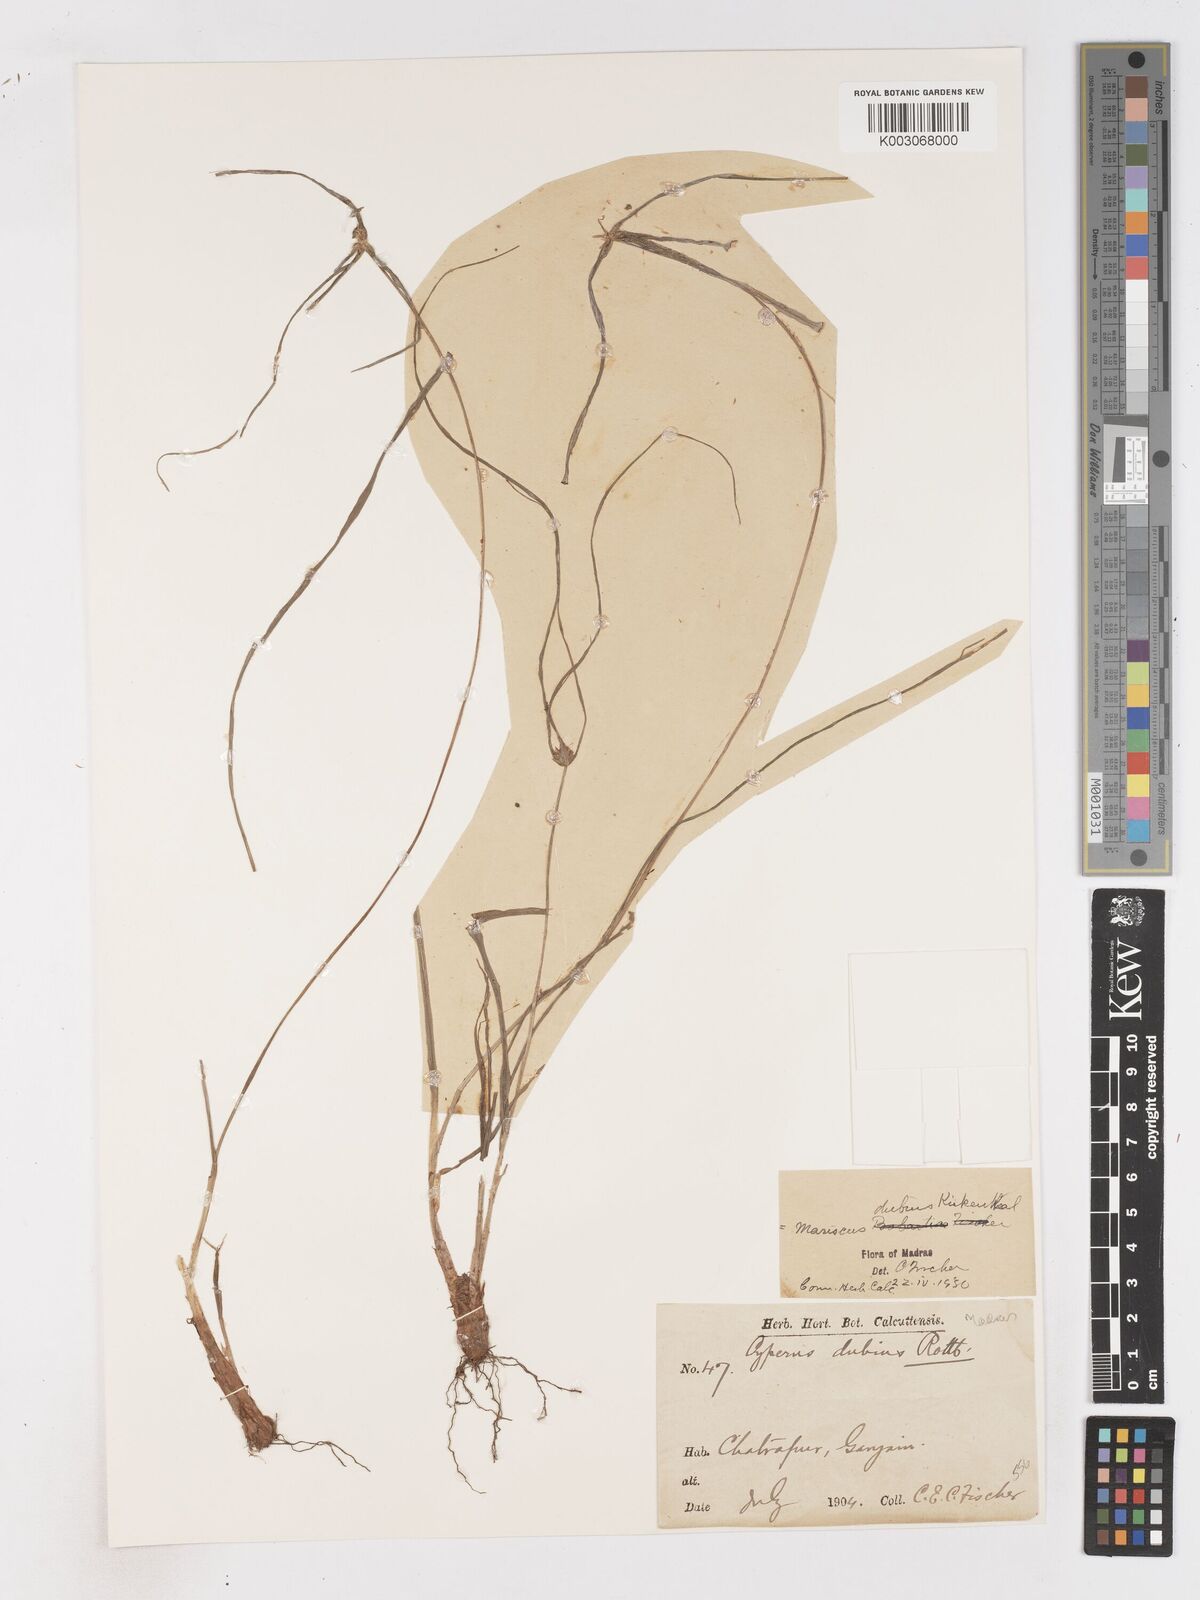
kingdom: Plantae
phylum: Tracheophyta
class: Liliopsida
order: Poales
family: Cyperaceae
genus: Cyperus
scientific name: Cyperus dubius
